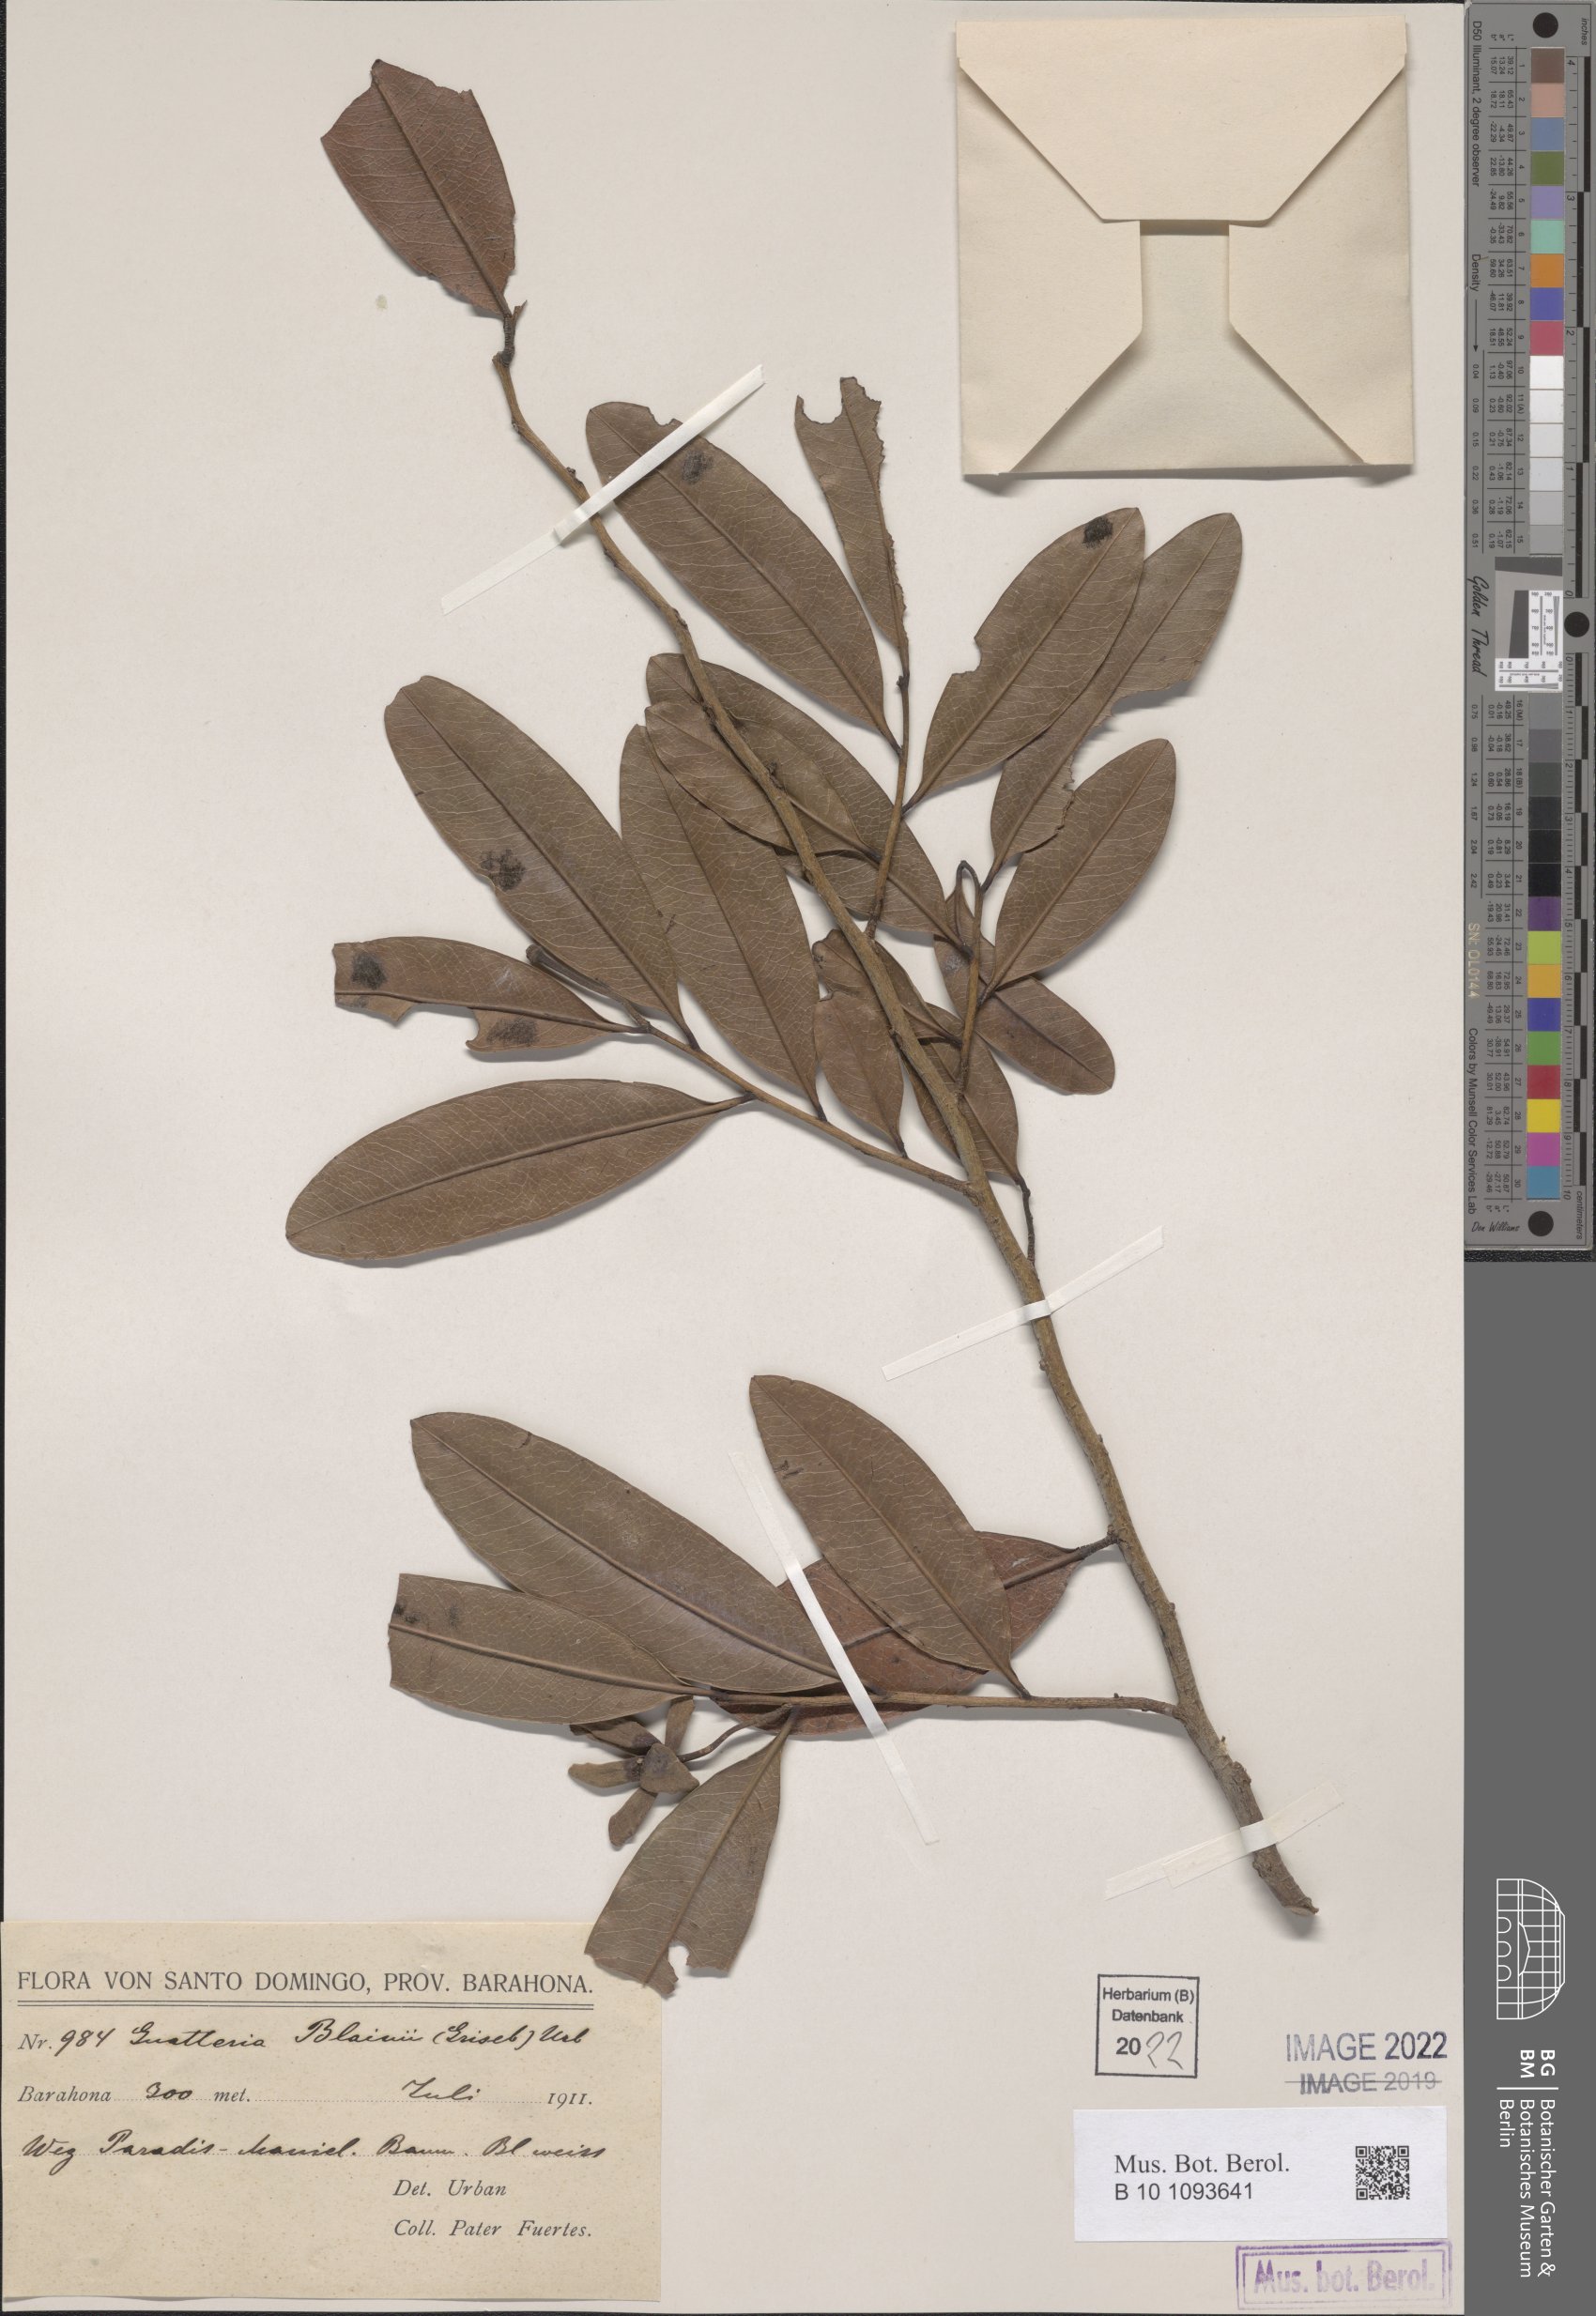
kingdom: Plantae
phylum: Tracheophyta
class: Magnoliopsida
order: Magnoliales
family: Annonaceae
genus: Guatteria
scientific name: Guatteria blainii
